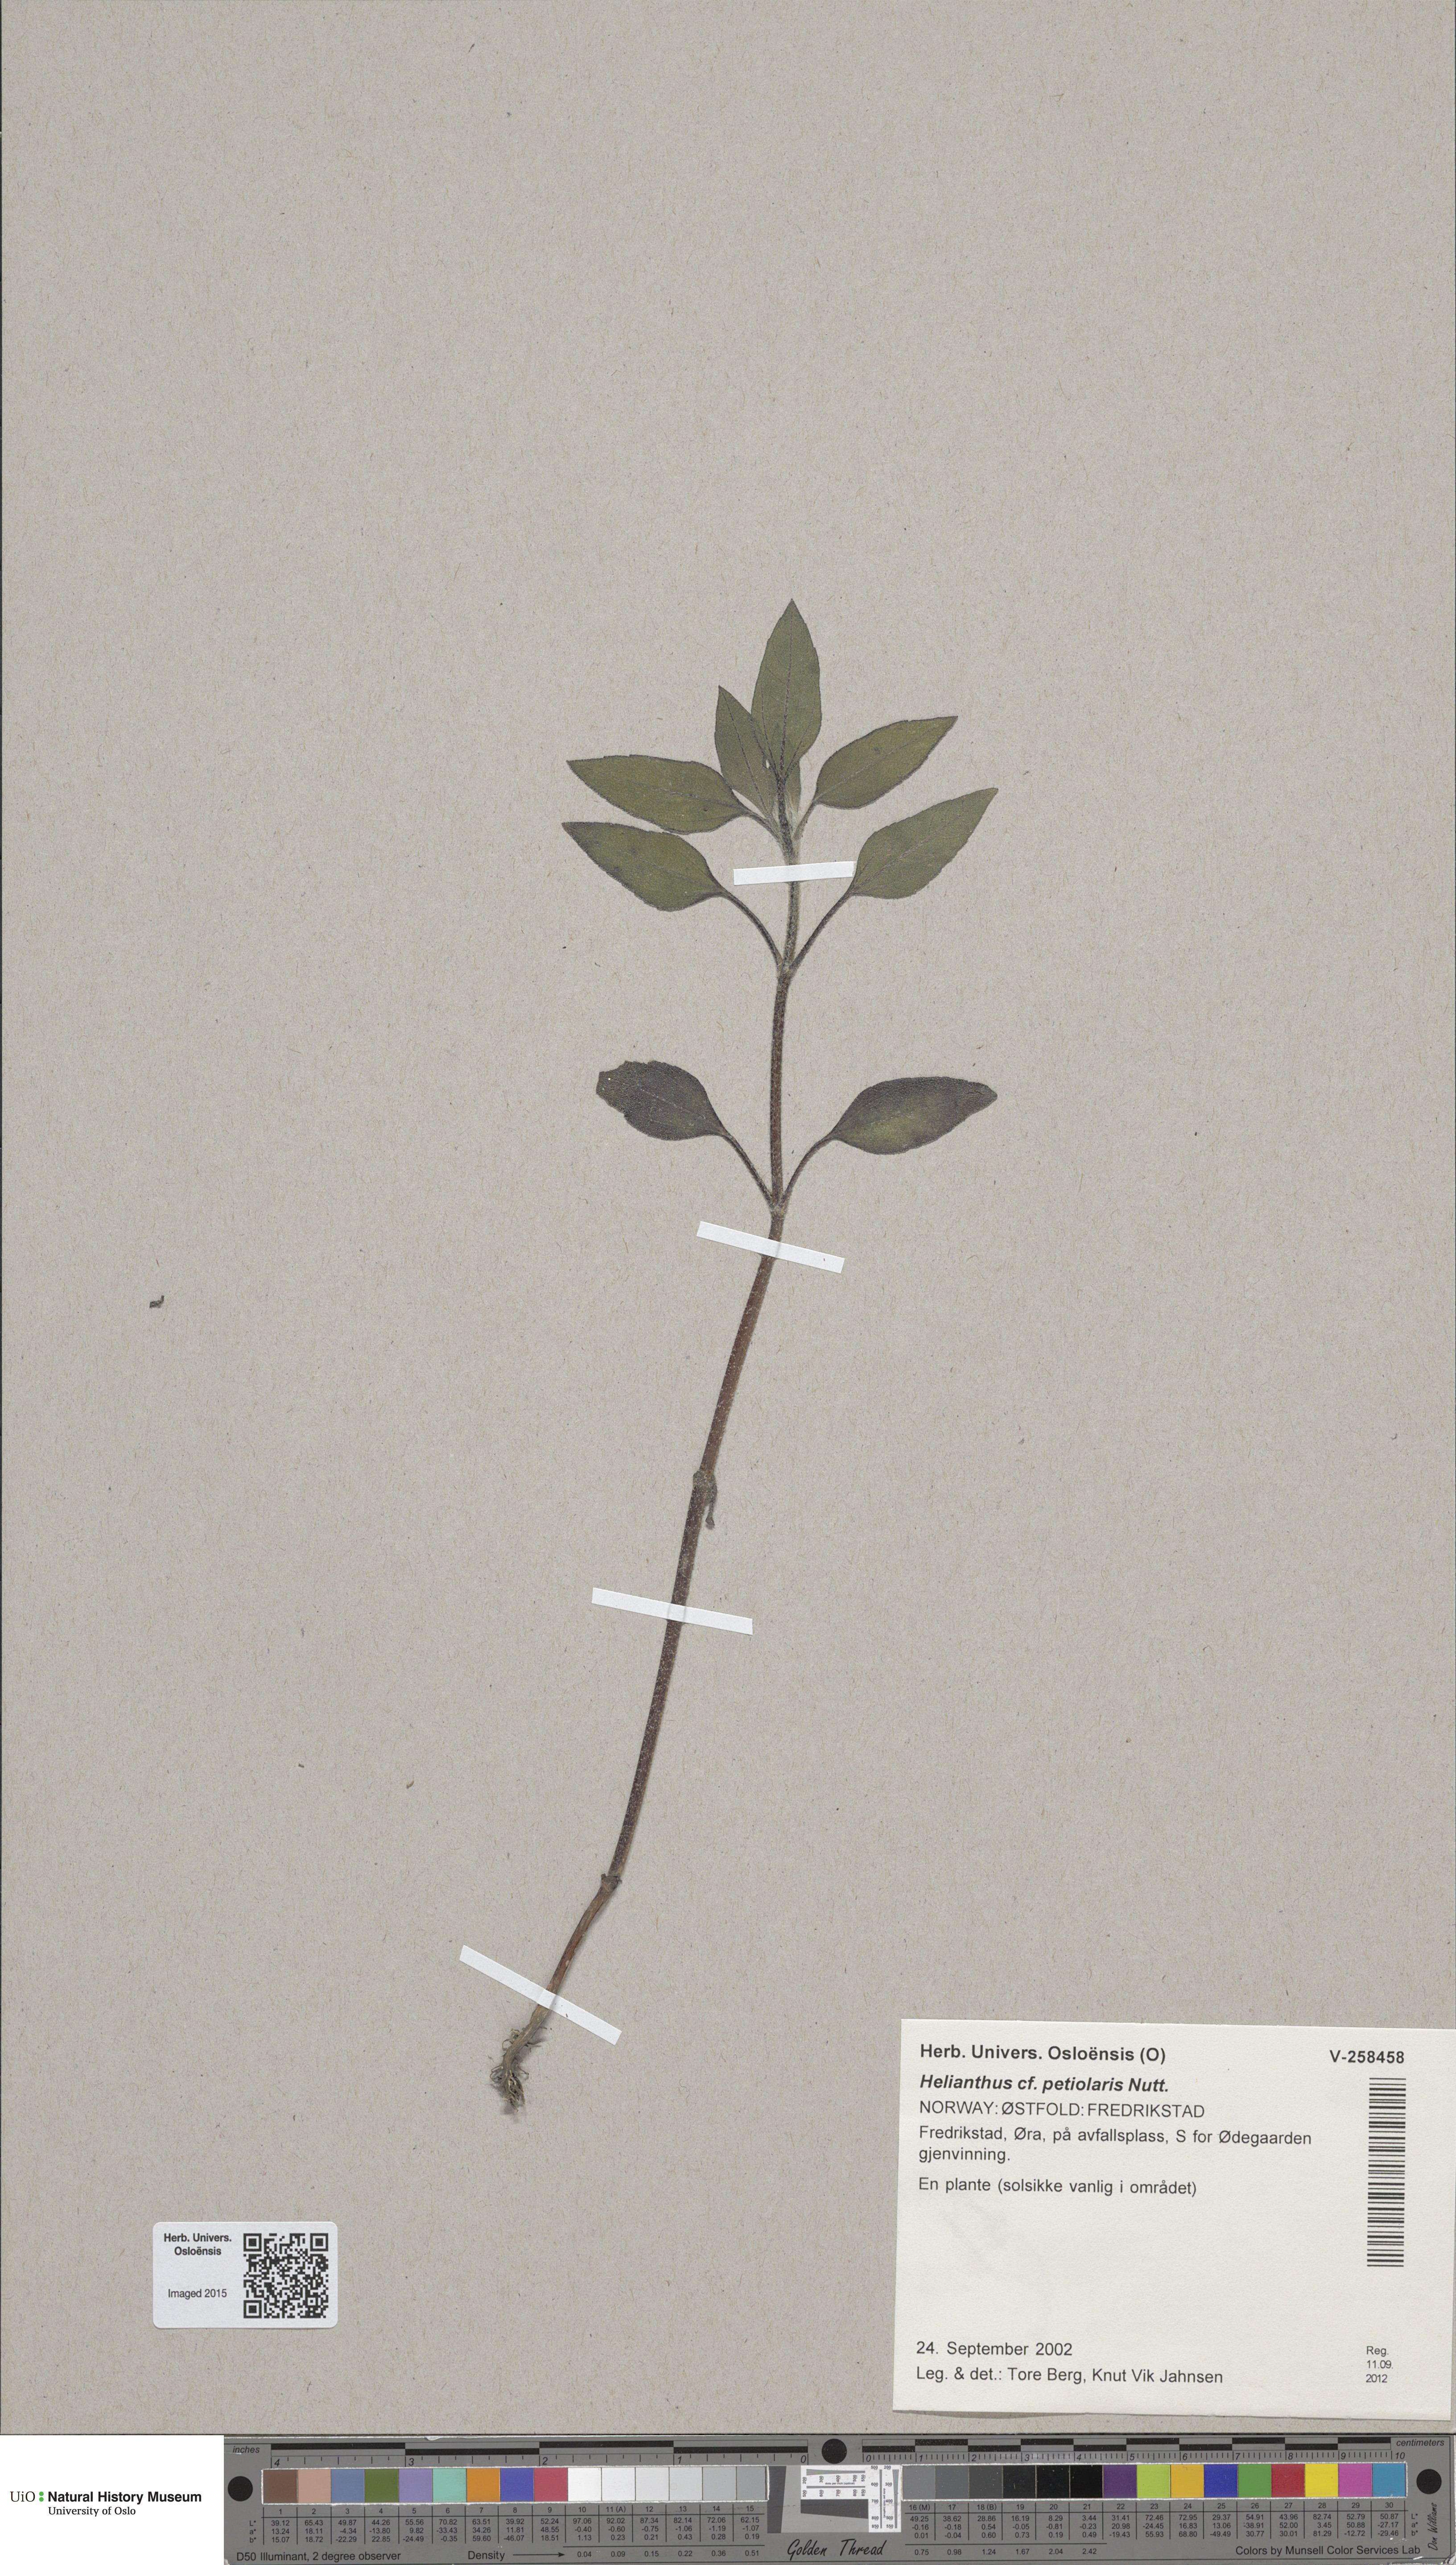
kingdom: Plantae
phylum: Tracheophyta
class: Magnoliopsida
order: Asterales
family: Asteraceae
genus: Helianthus
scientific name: Helianthus petiolaris
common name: Lesser sunflower
